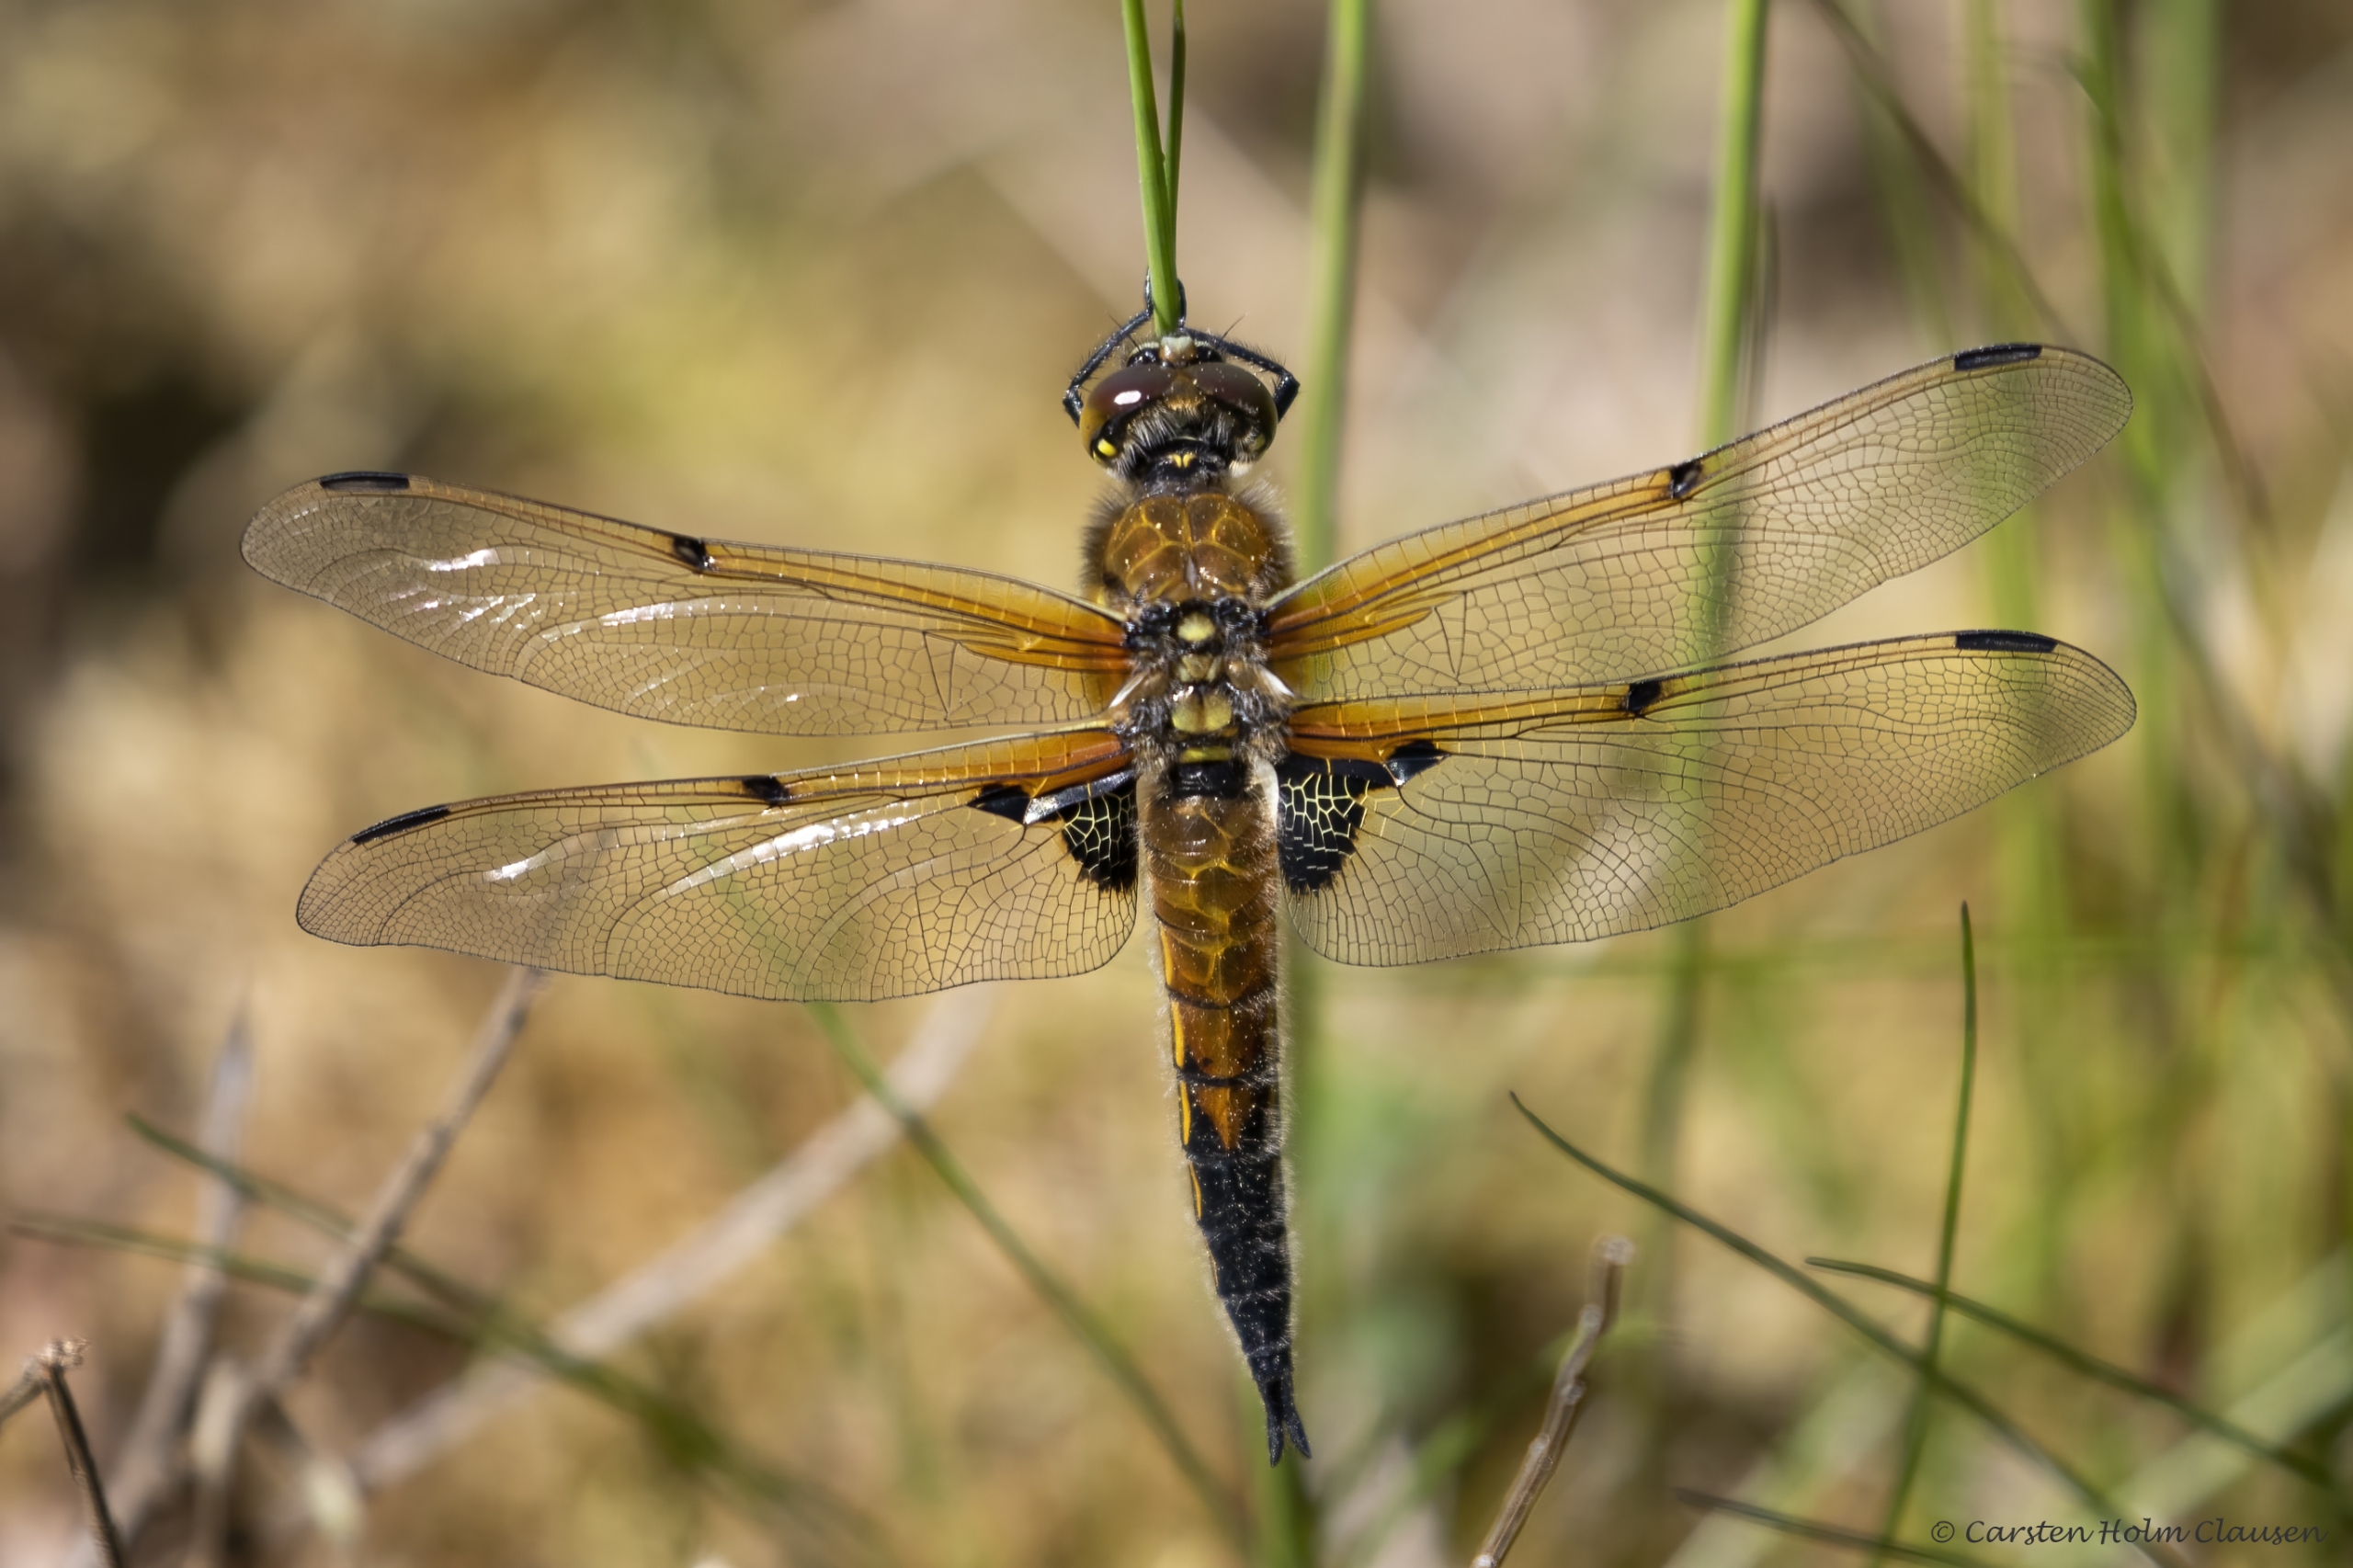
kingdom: Animalia
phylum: Arthropoda
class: Insecta
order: Odonata
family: Libellulidae
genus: Libellula
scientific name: Libellula quadrimaculata
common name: Fireplettet libel
